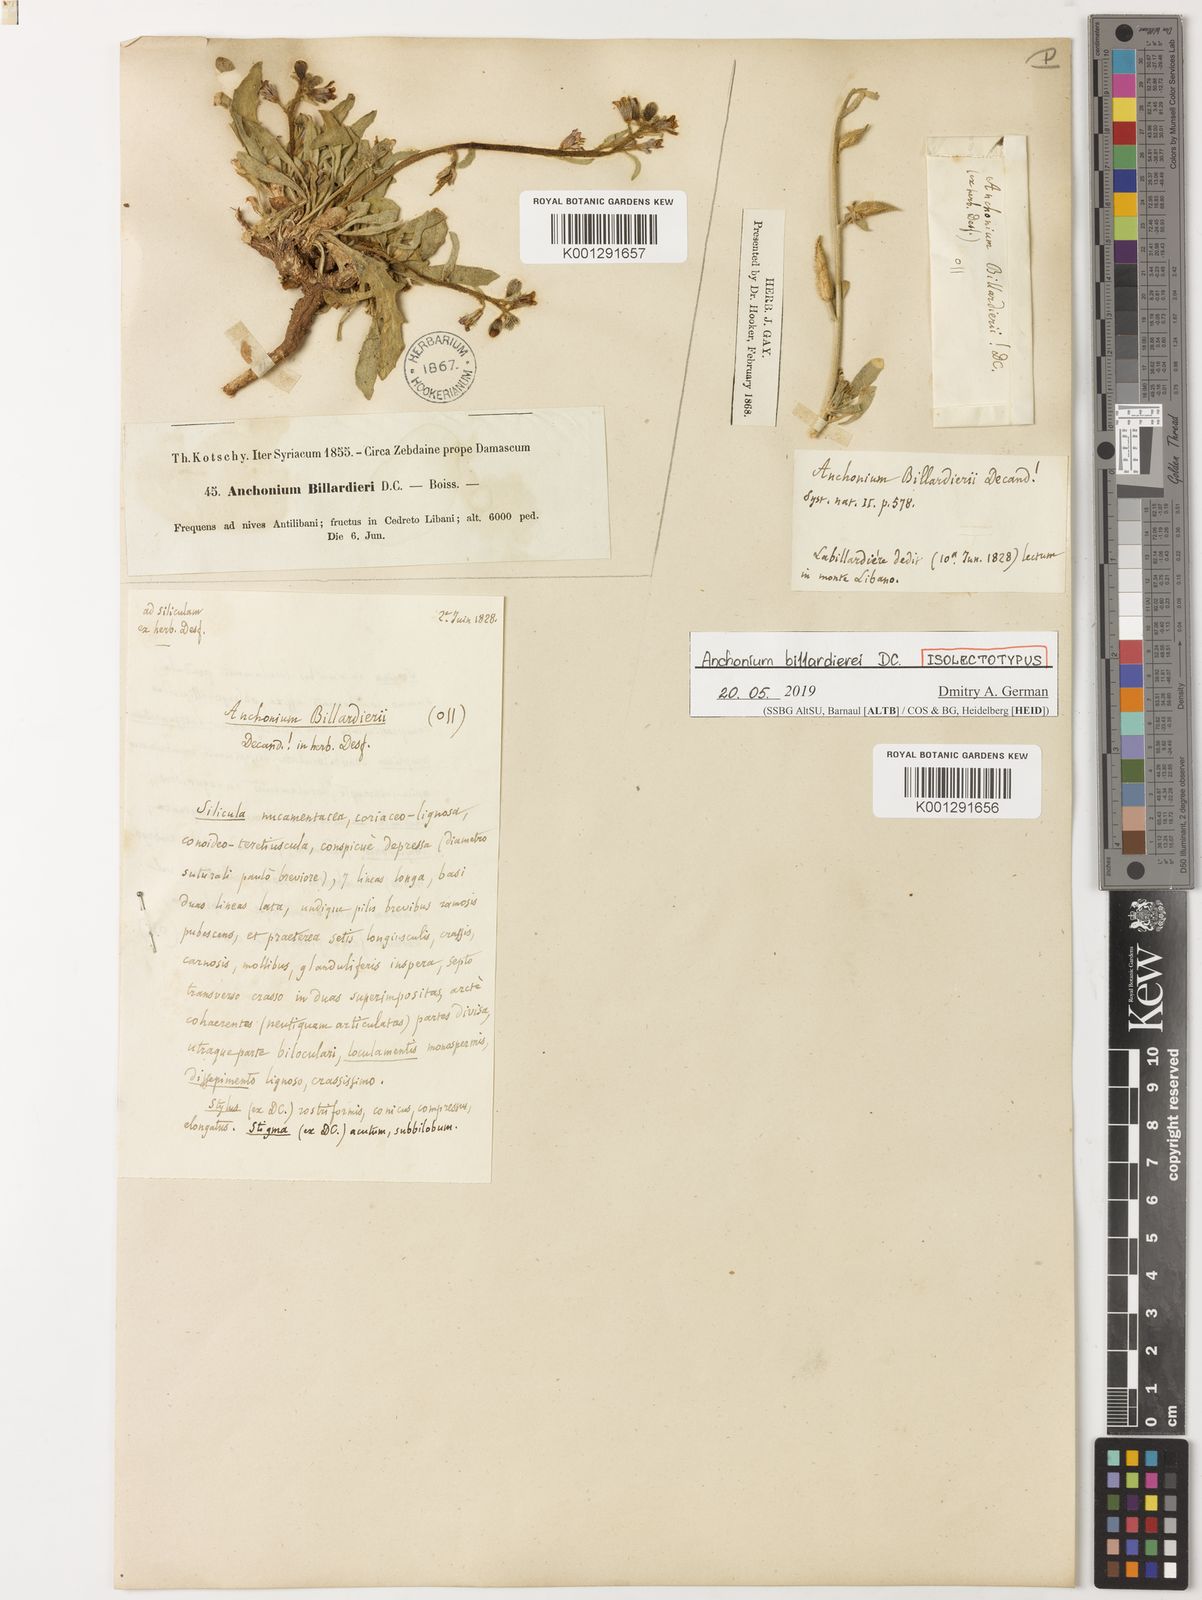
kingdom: Plantae
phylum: Tracheophyta
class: Magnoliopsida
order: Brassicales
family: Brassicaceae
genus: Anchonium
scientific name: Anchonium billardieri
